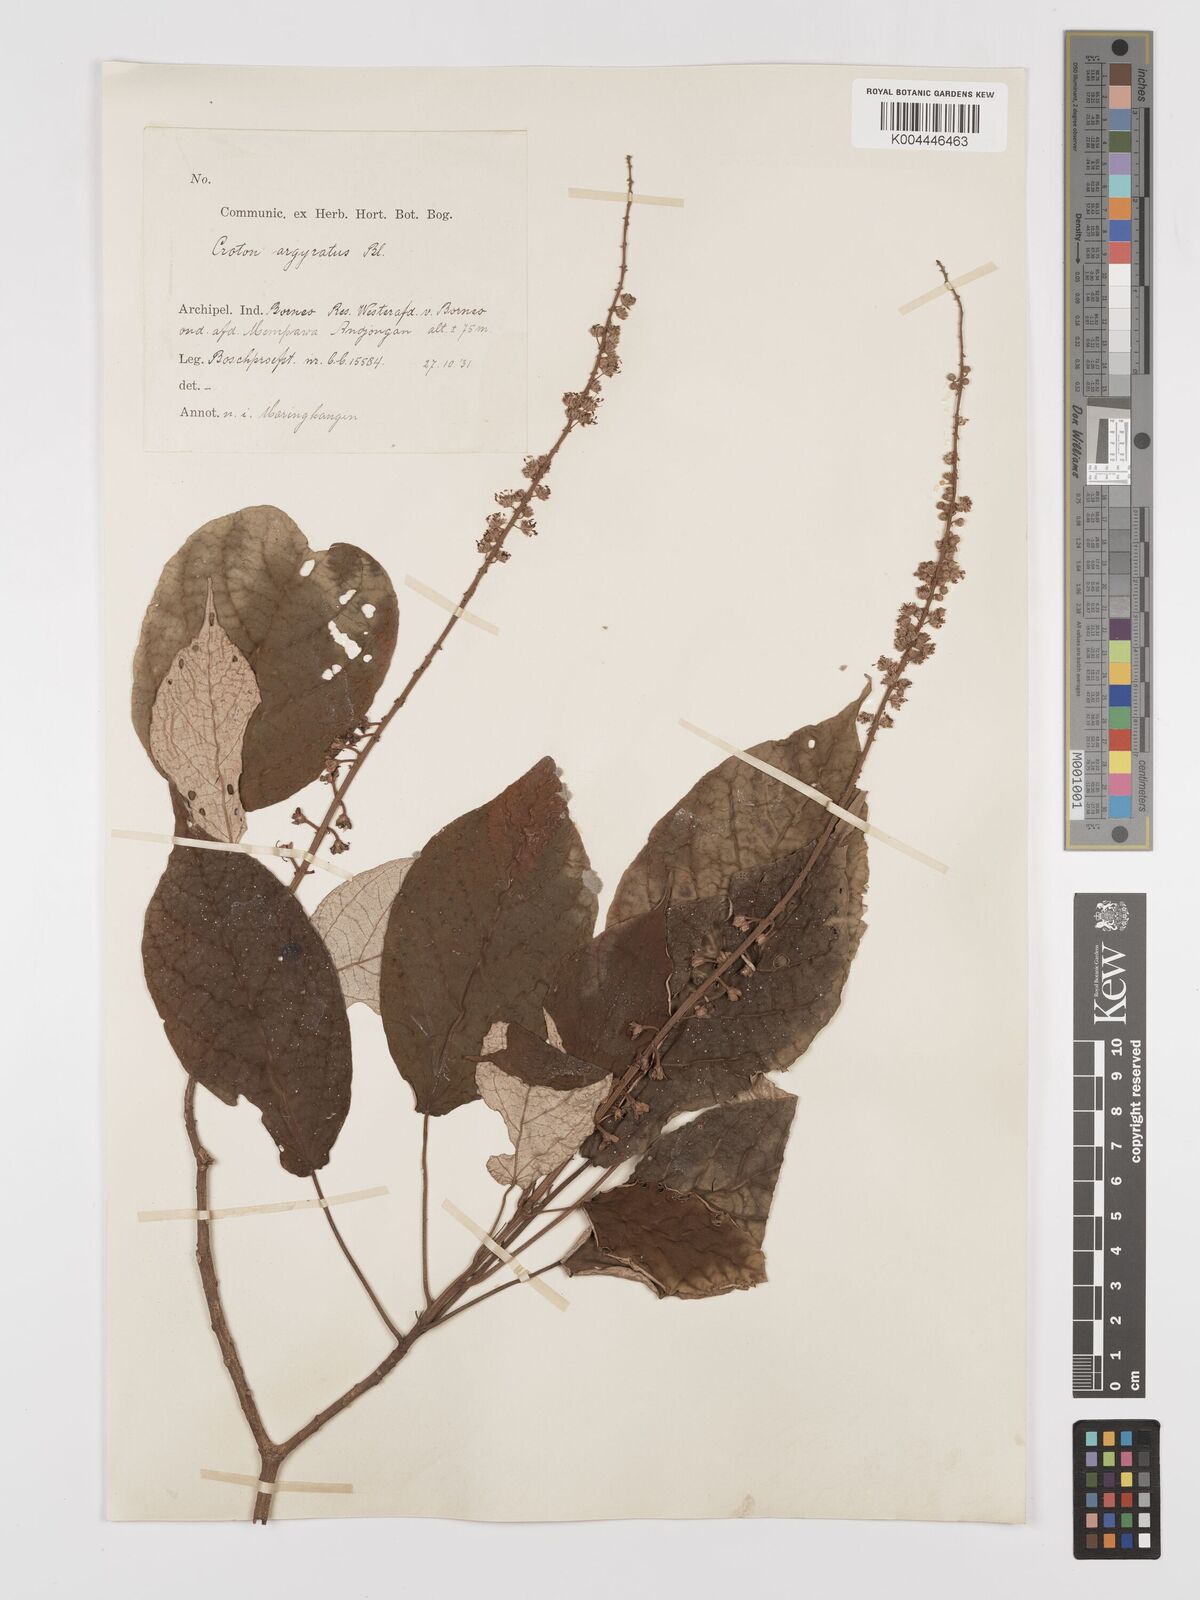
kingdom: Plantae
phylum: Tracheophyta
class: Magnoliopsida
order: Malpighiales
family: Euphorbiaceae
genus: Croton
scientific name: Croton argyratus
